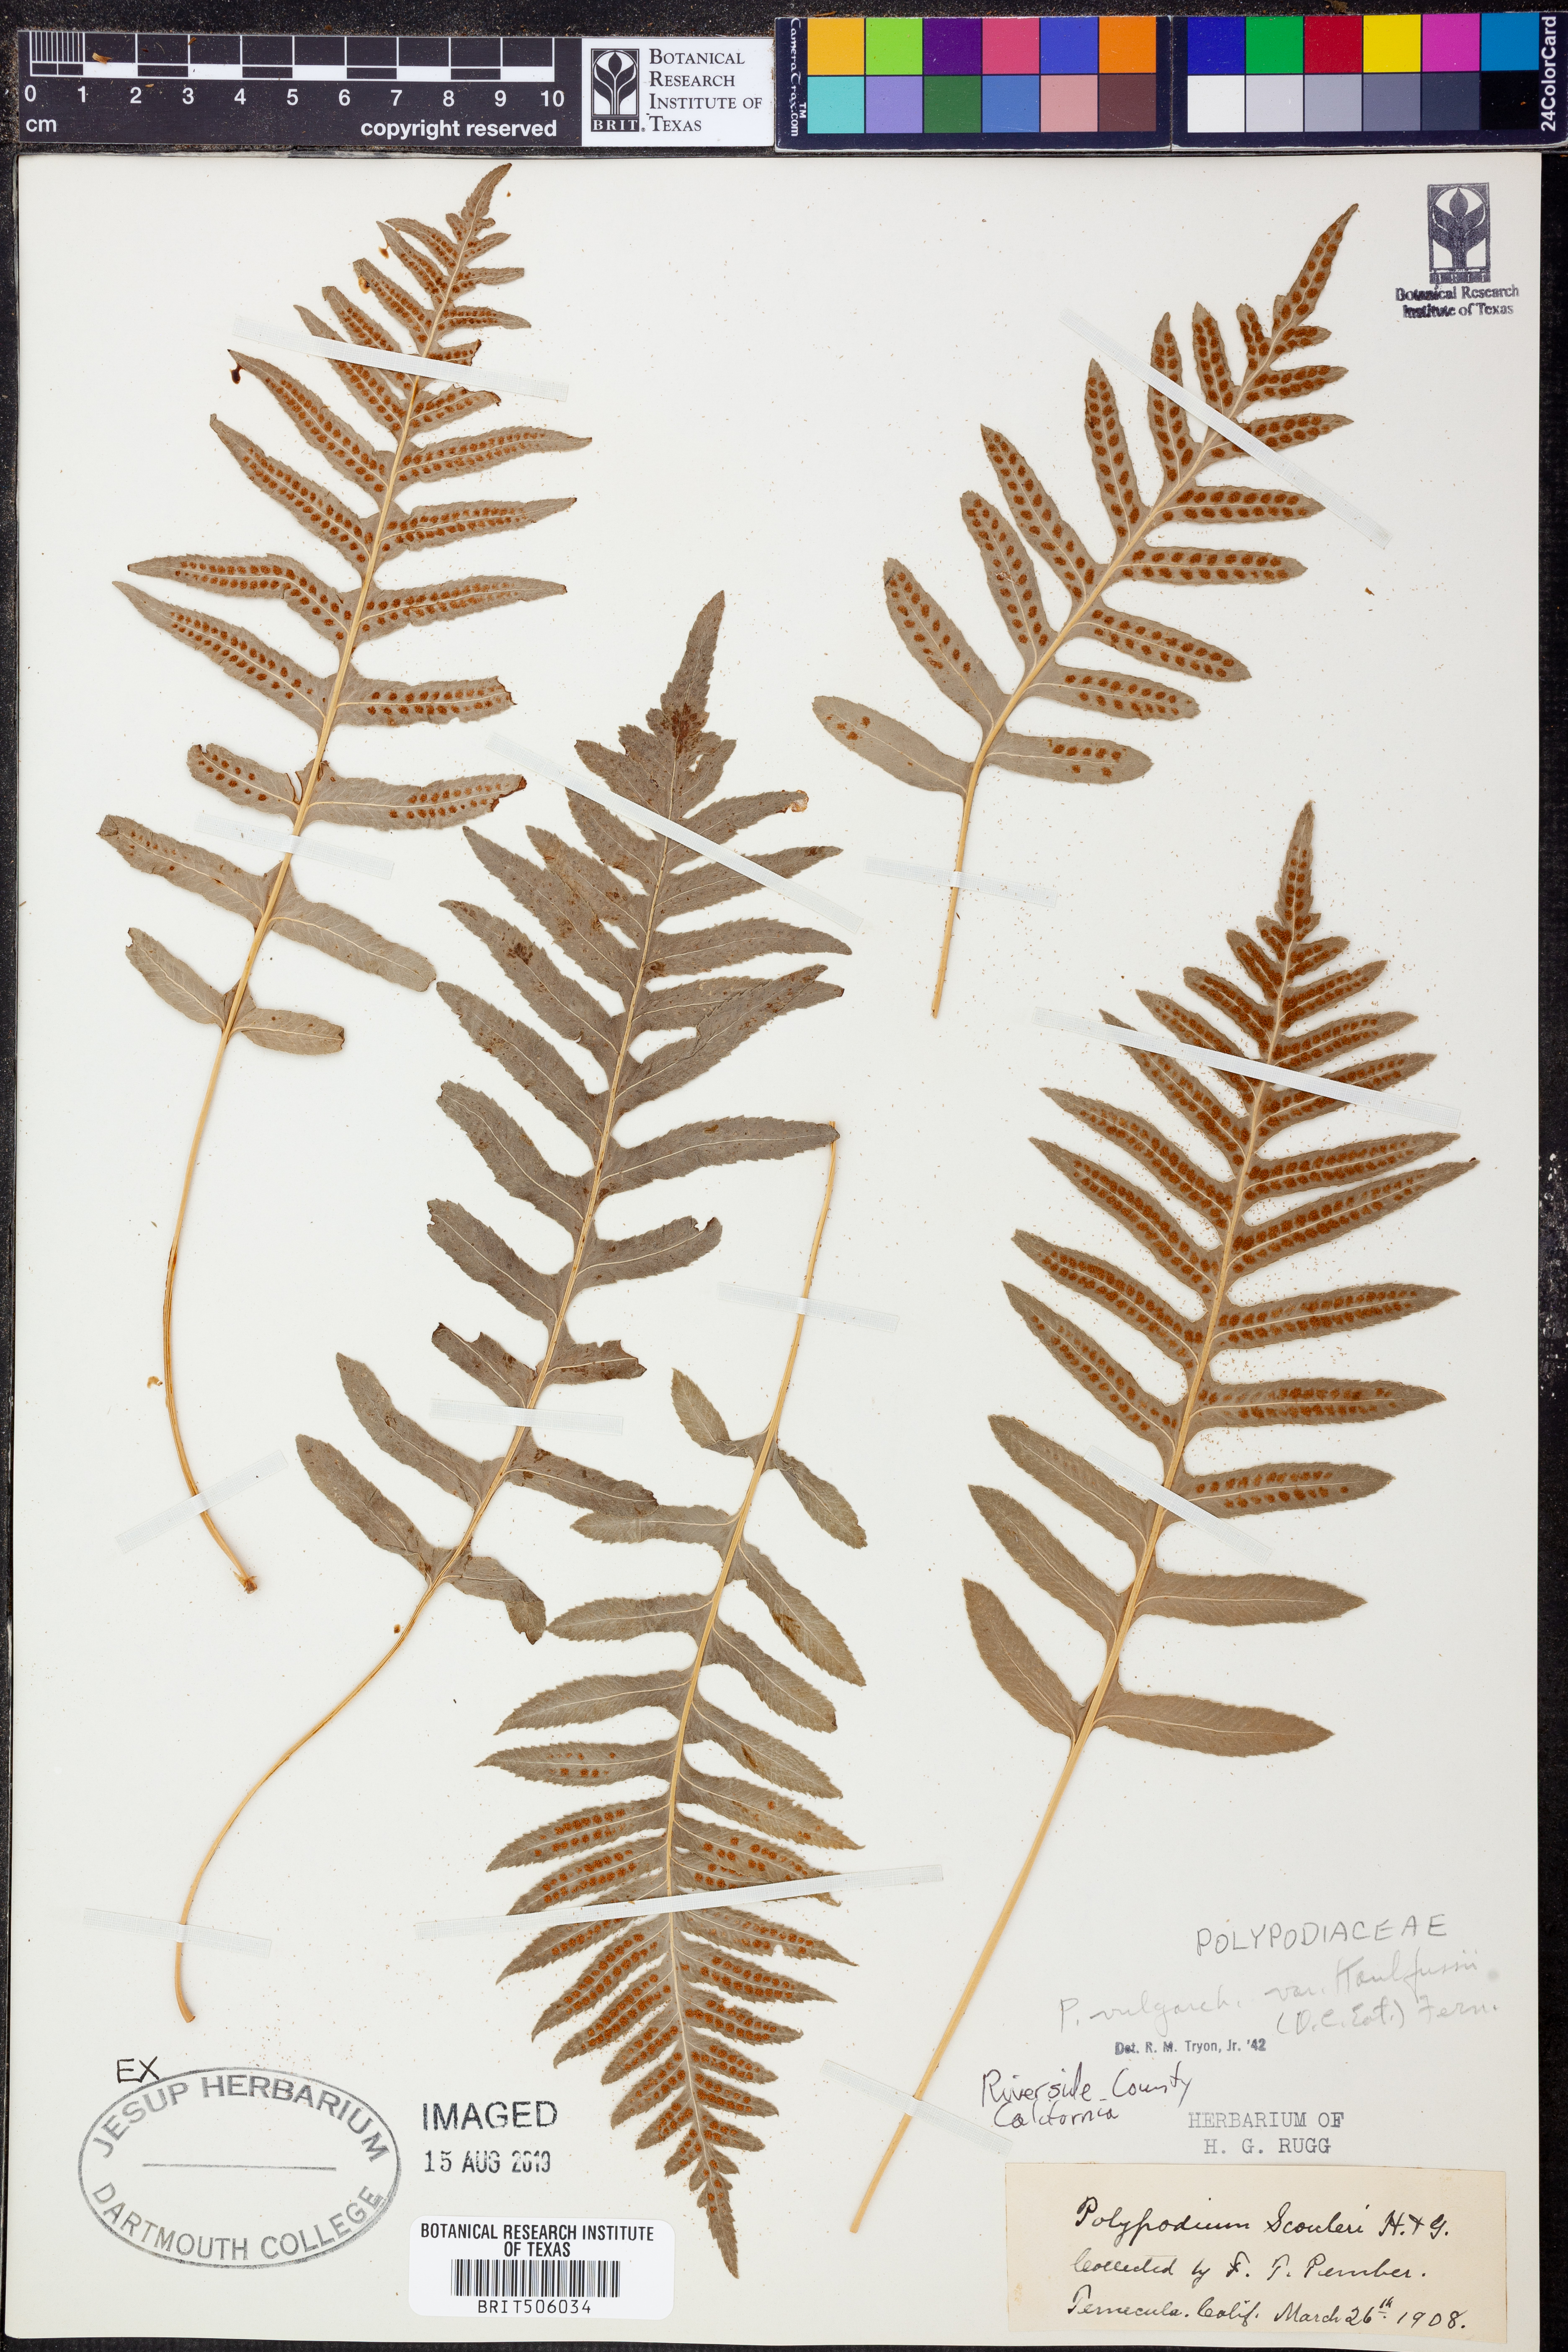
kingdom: Plantae
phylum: Tracheophyta
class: Polypodiopsida
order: Polypodiales
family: Polypodiaceae
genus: Polypodium
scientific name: Polypodium californicum
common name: California polypody
